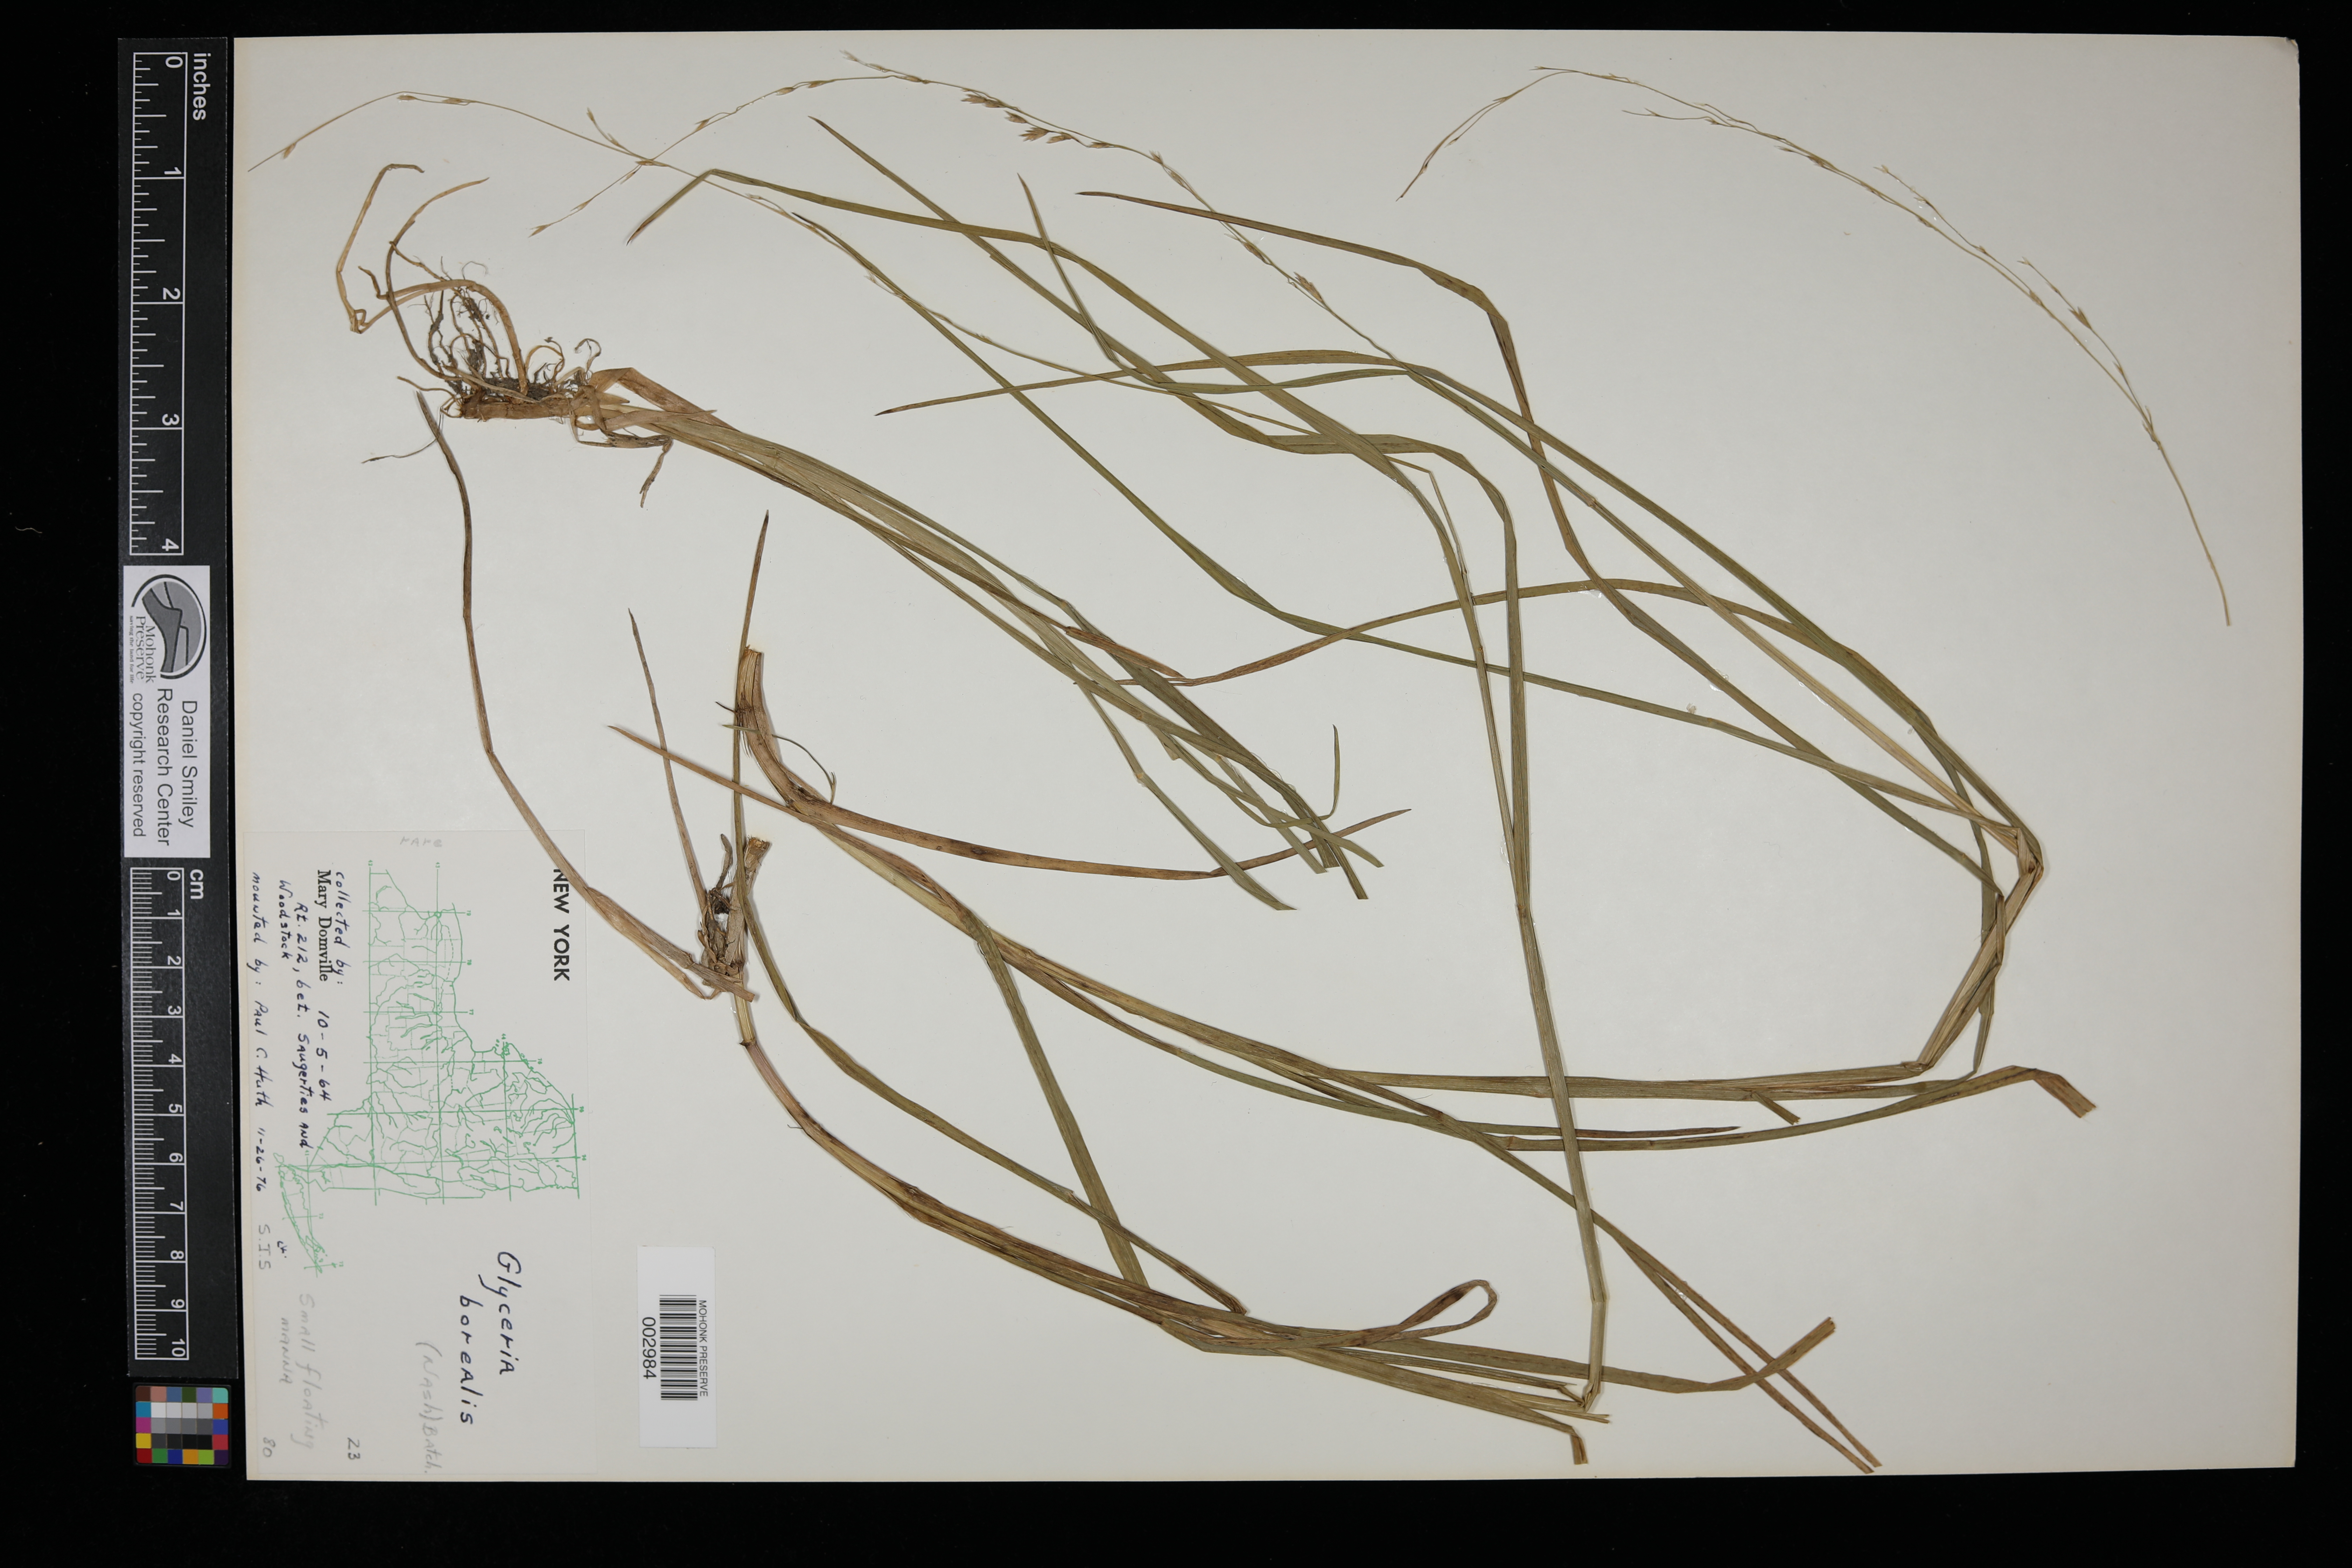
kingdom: Plantae
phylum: Tracheophyta
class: Liliopsida
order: Poales
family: Poaceae
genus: Glyceria
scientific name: Glyceria borealis
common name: Boreal glyceria
